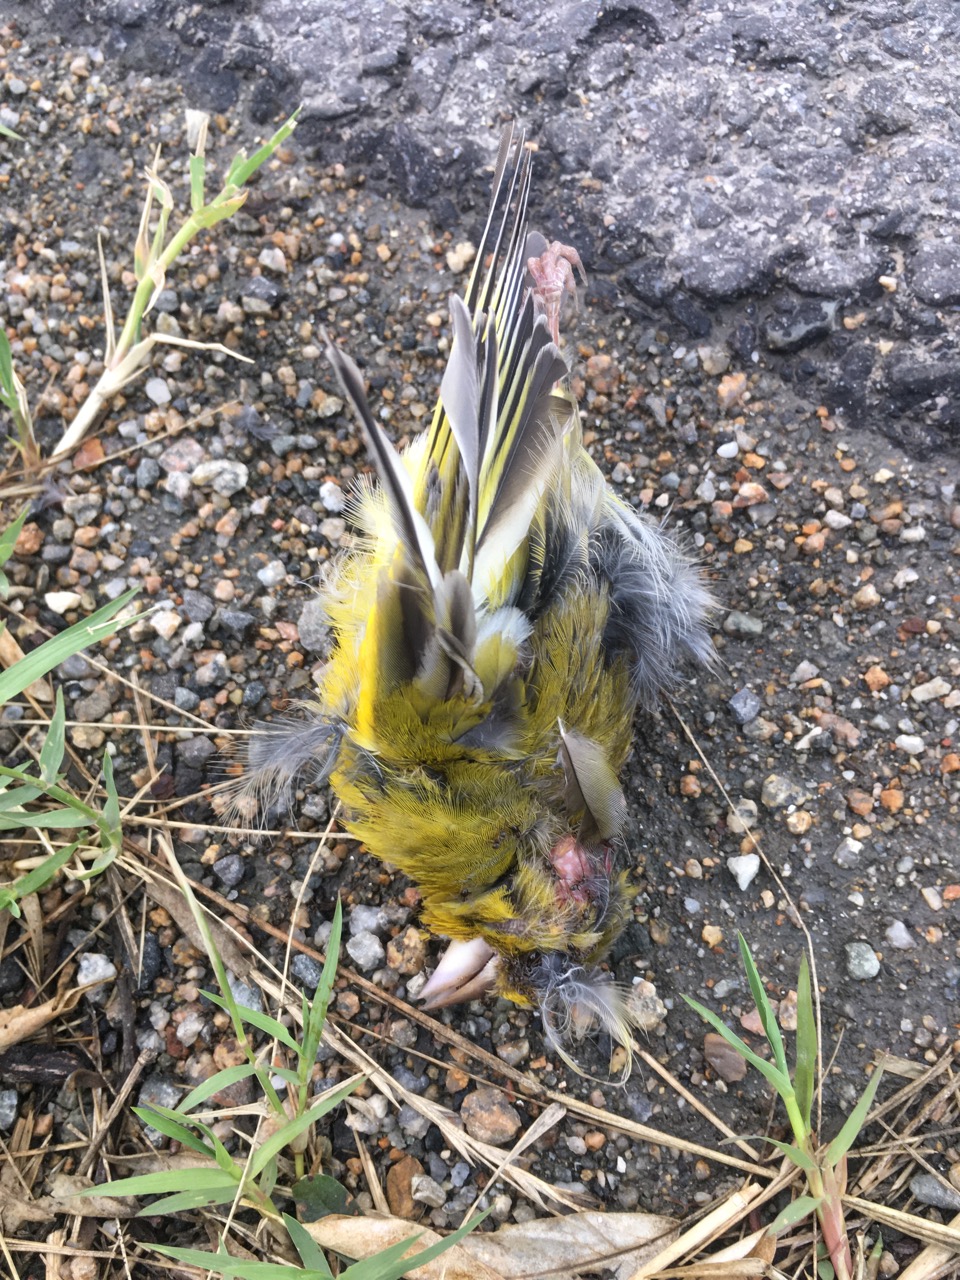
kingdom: Plantae
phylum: Tracheophyta
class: Liliopsida
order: Poales
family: Poaceae
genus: Chloris
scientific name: Chloris chloris
